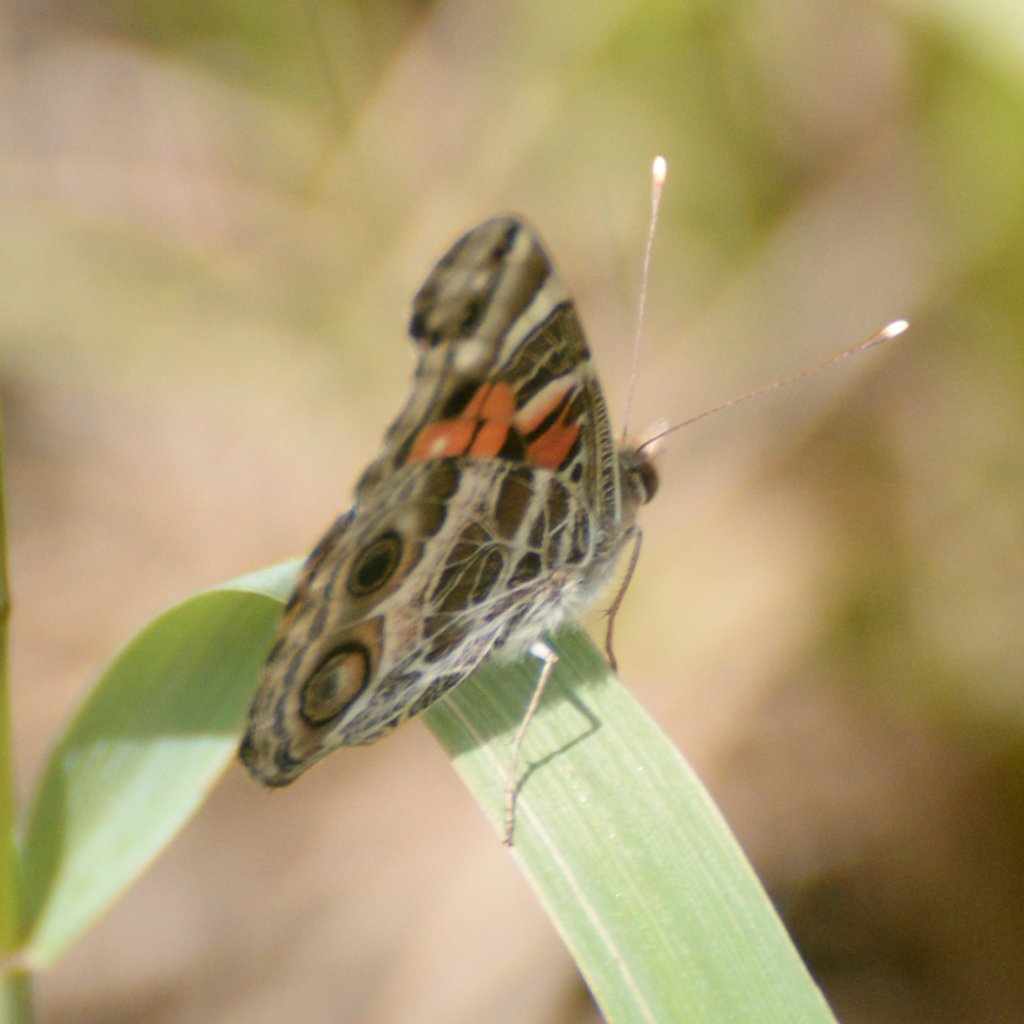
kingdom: Animalia
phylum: Arthropoda
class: Insecta
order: Lepidoptera
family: Nymphalidae
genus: Vanessa
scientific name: Vanessa virginiensis
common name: American Lady
